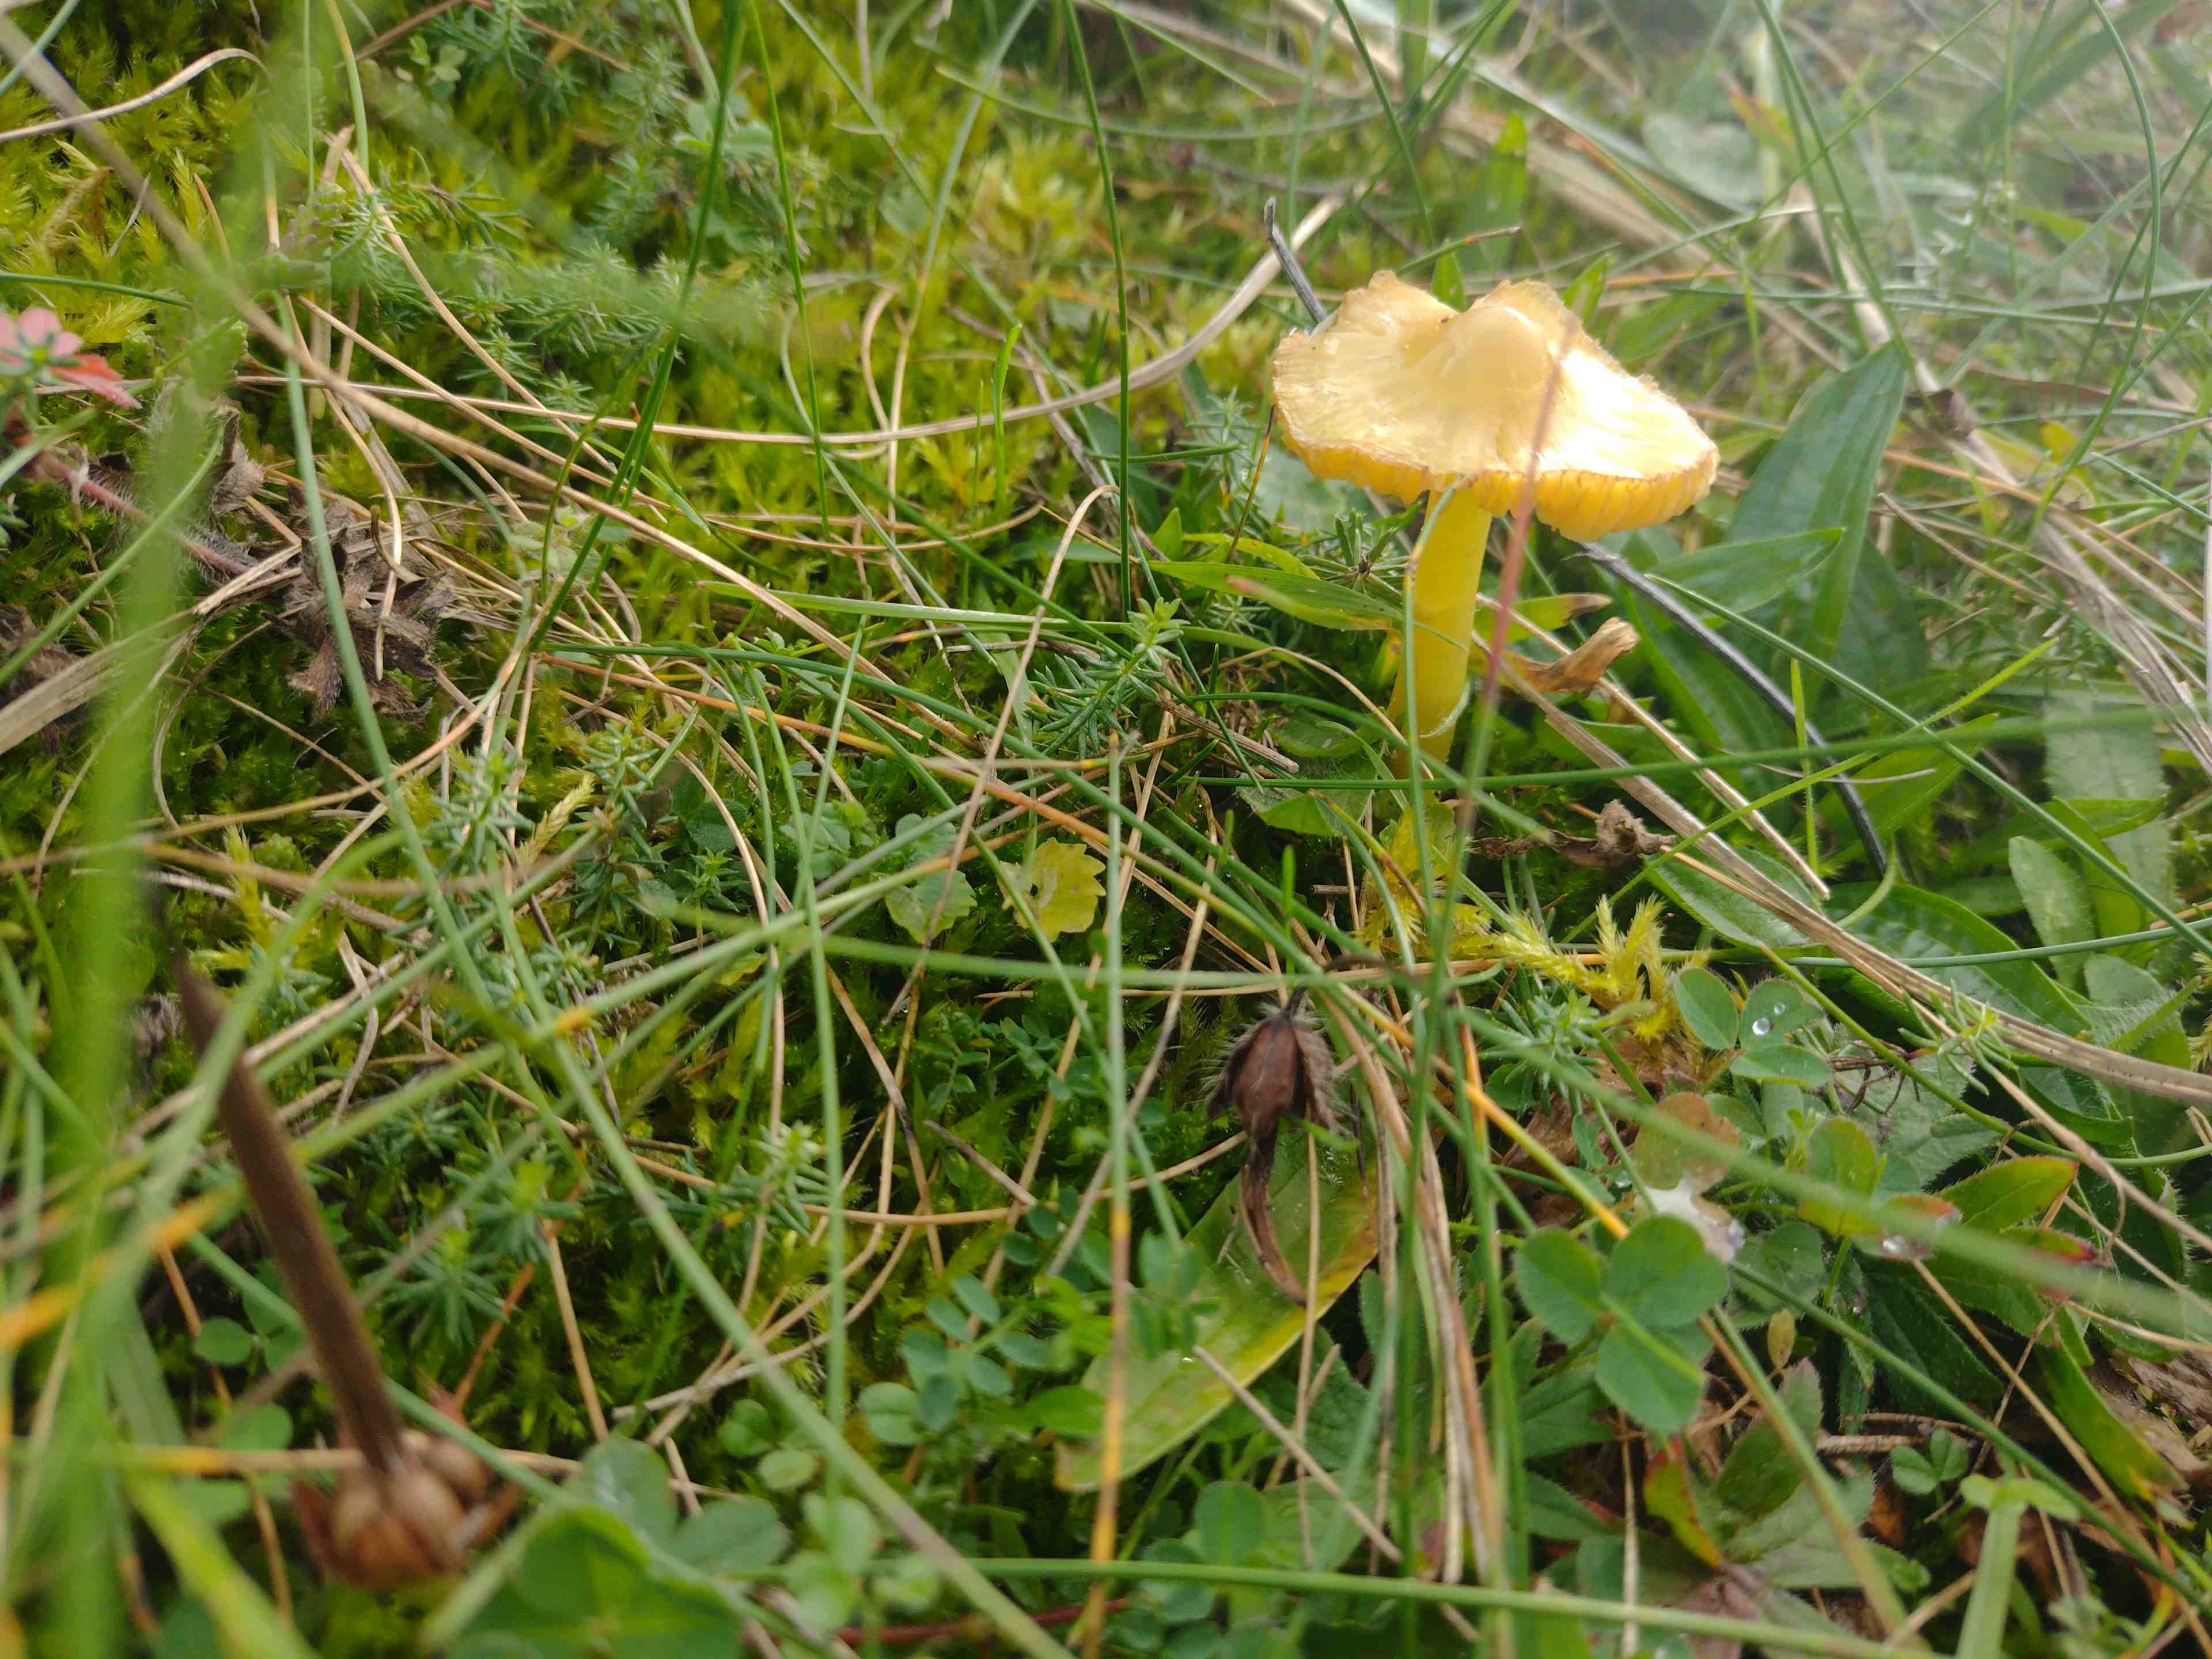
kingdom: Fungi
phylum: Basidiomycota
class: Agaricomycetes
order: Agaricales
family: Hygrophoraceae
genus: Hygrocybe
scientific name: Hygrocybe
